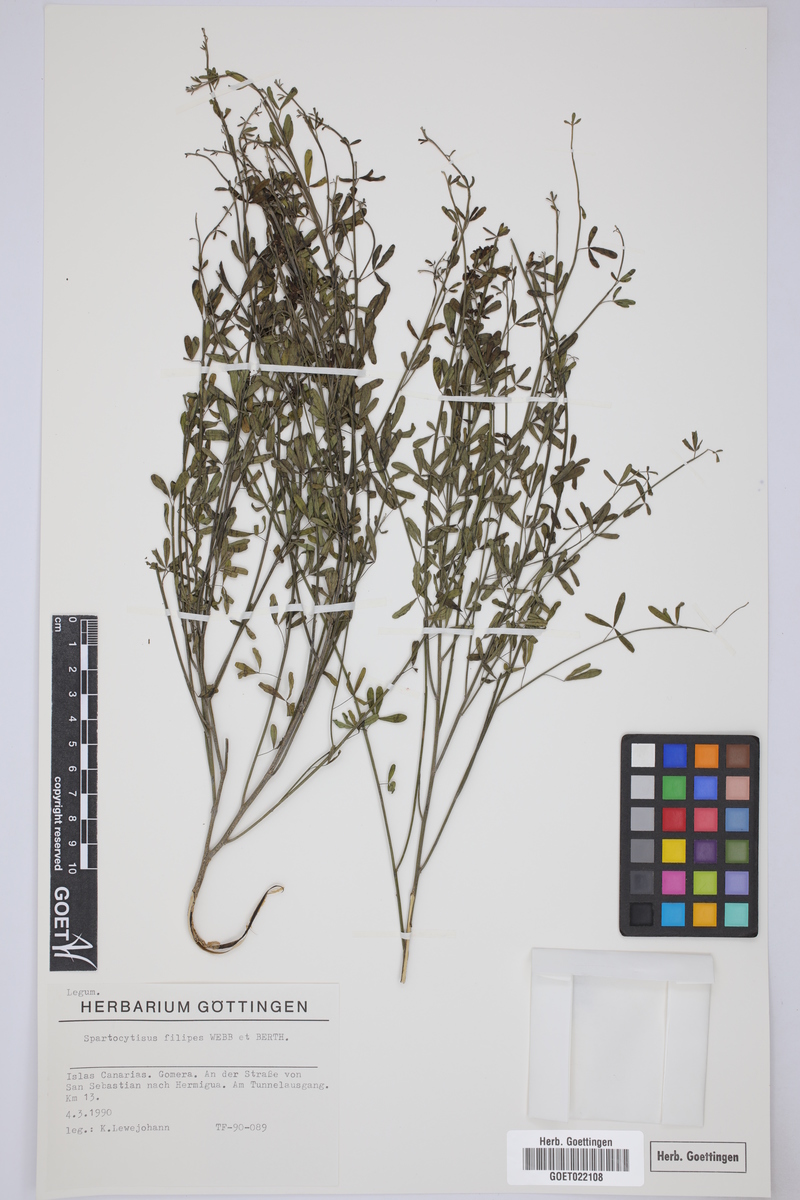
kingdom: Plantae
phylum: Tracheophyta
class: Magnoliopsida
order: Fabales
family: Fabaceae
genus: Cytisus
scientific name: Cytisus filipes
